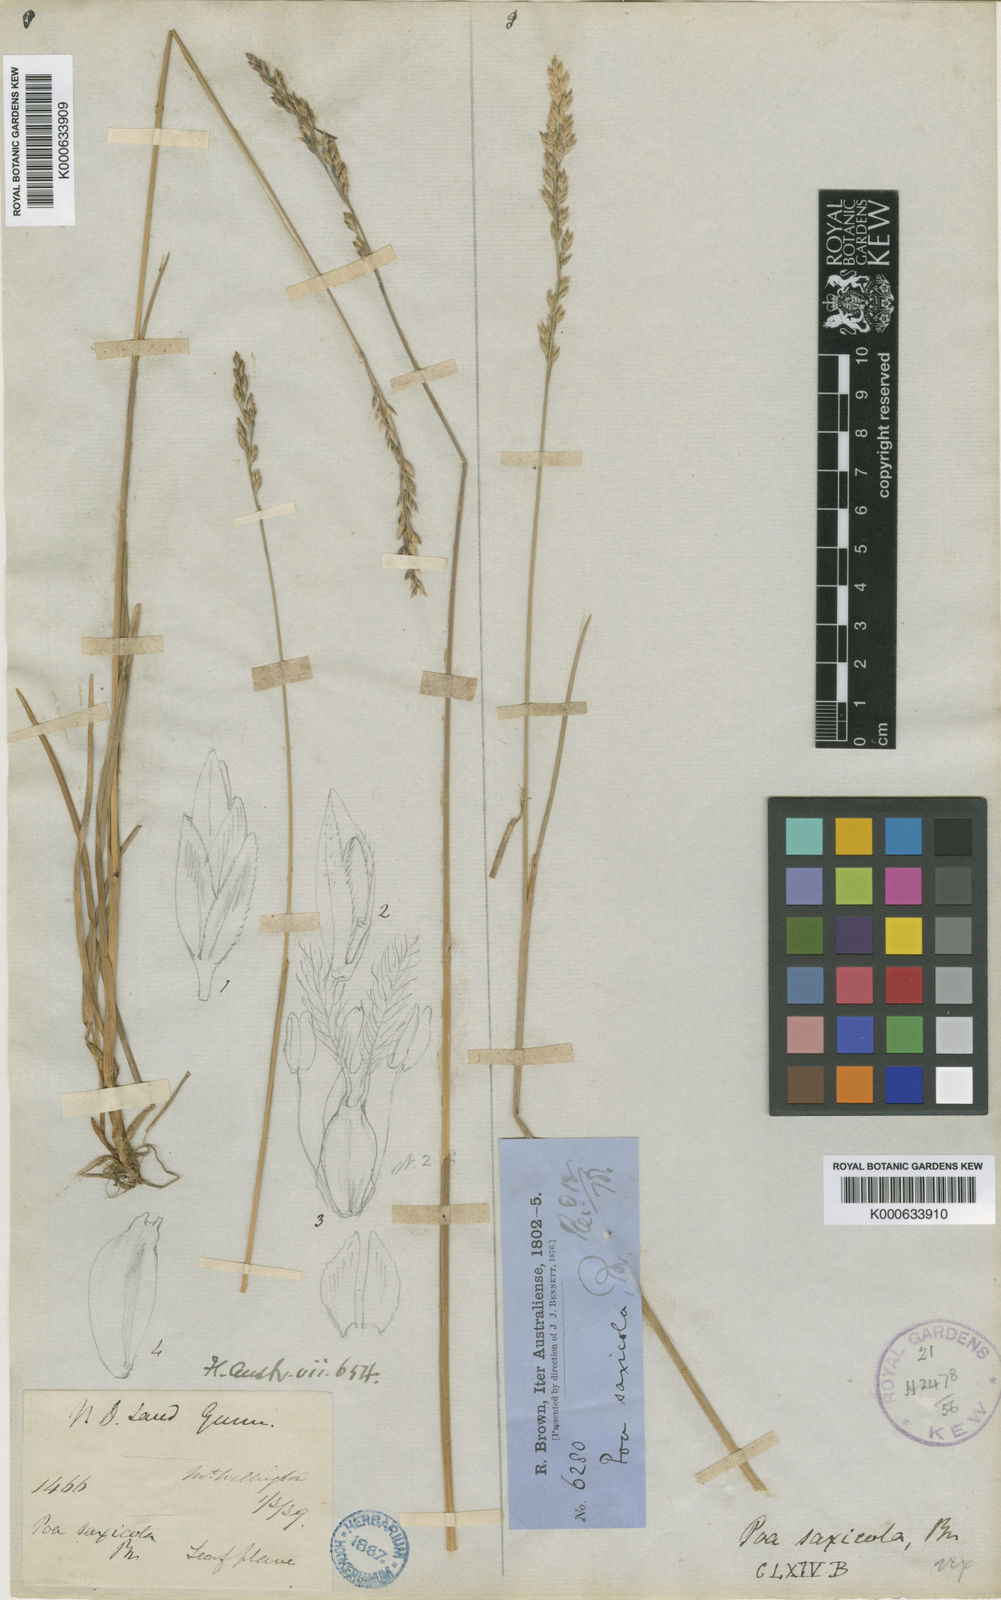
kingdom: Plantae
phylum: Tracheophyta
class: Liliopsida
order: Poales
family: Poaceae
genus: Saxipoa
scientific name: Saxipoa saxicola
